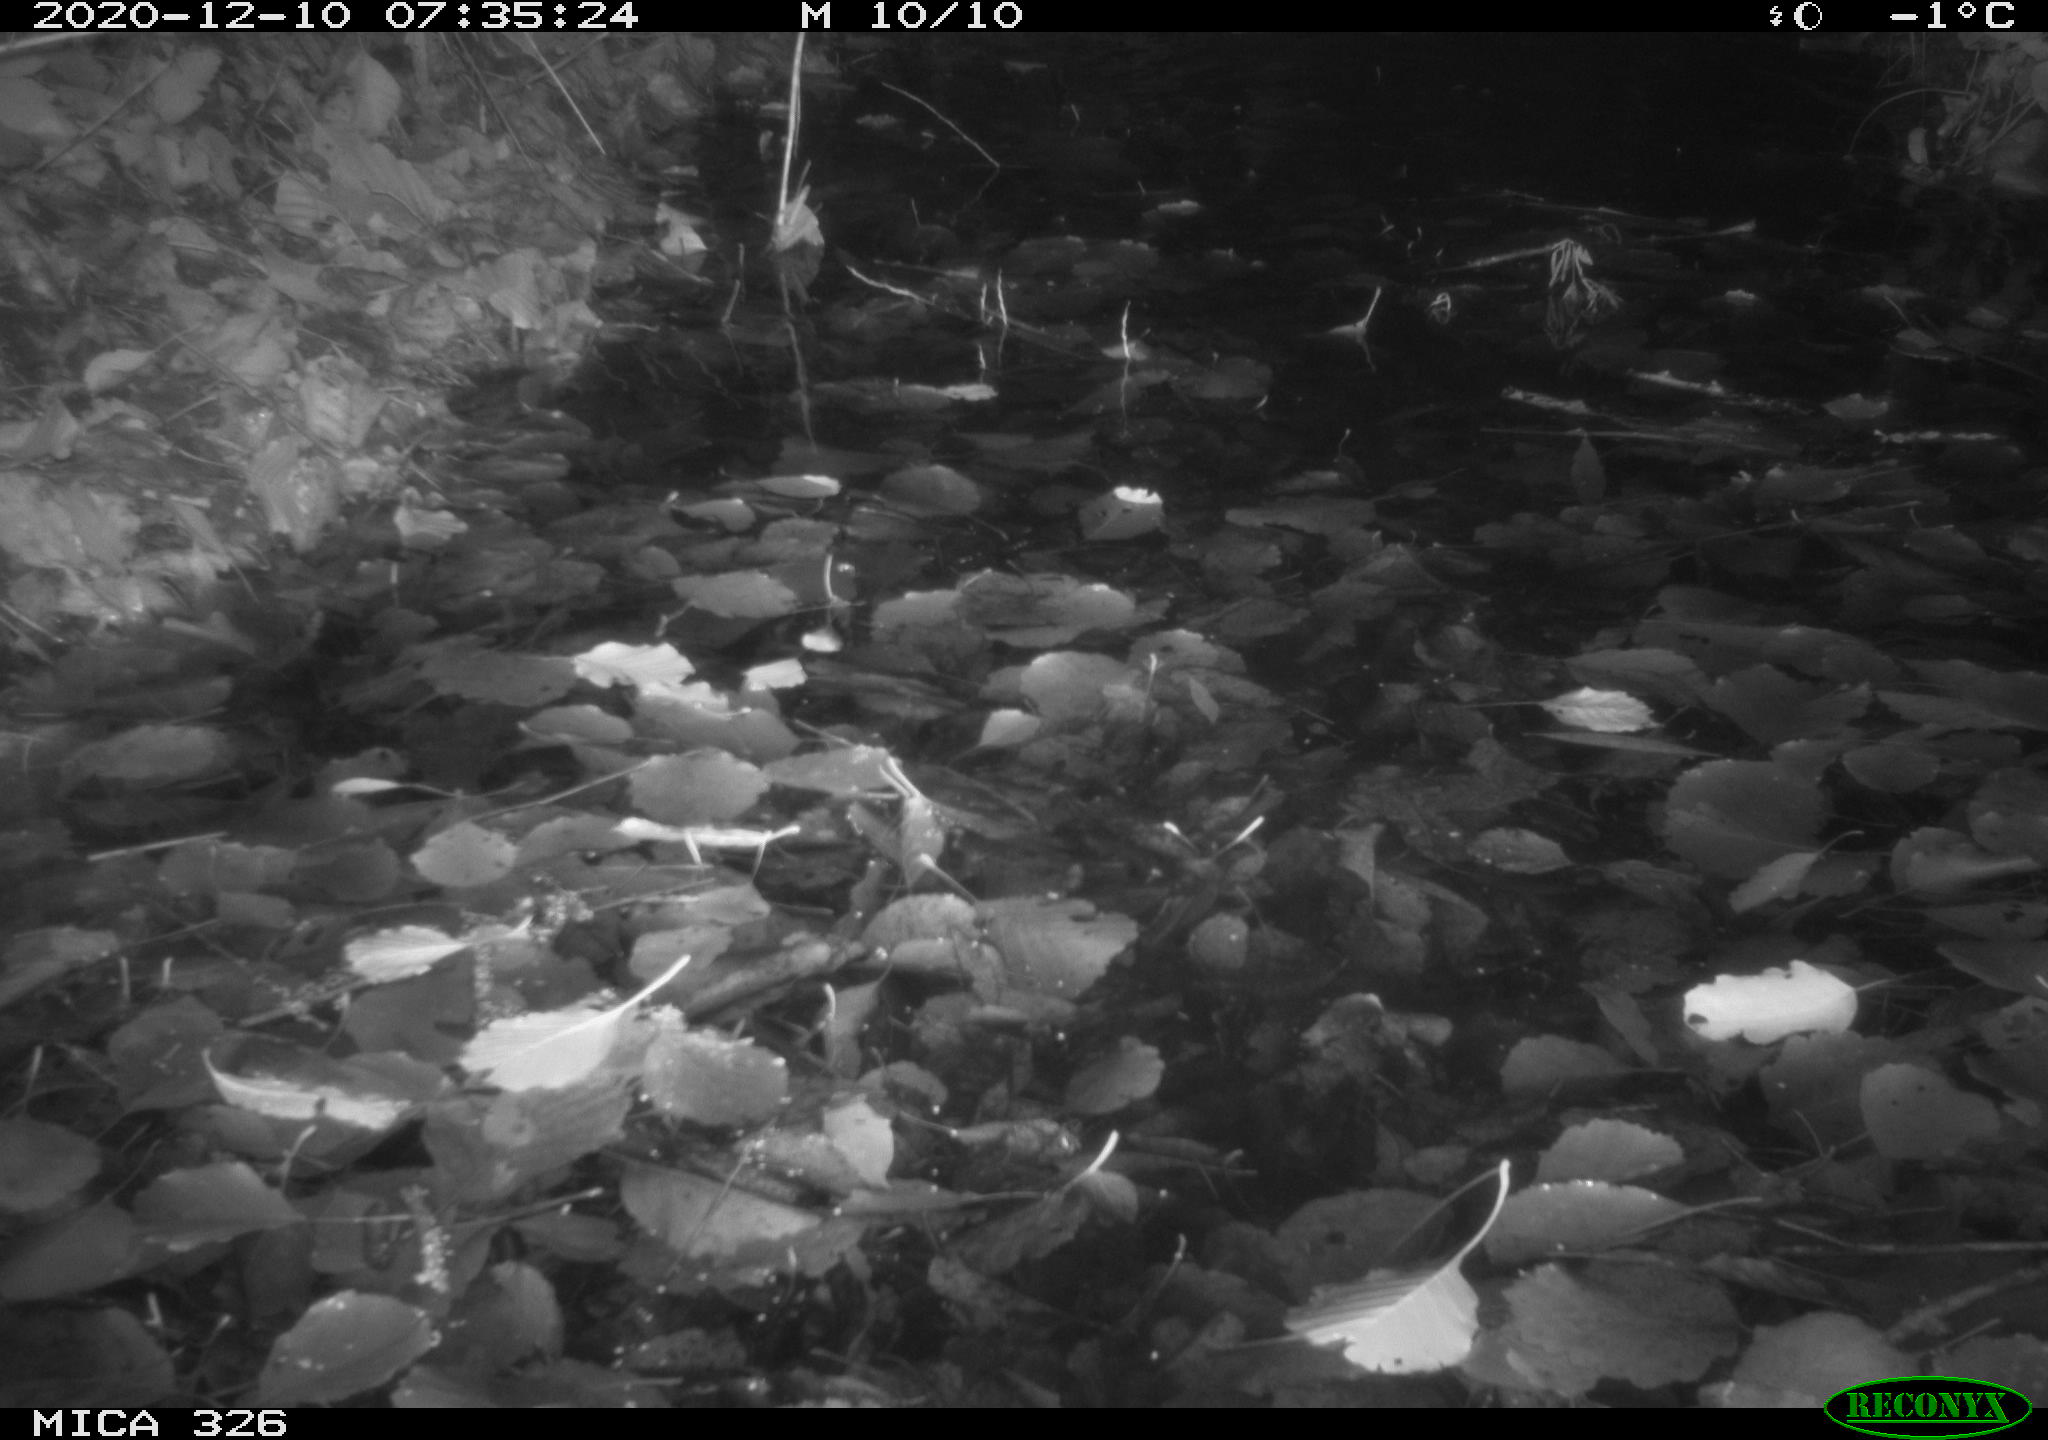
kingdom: Animalia
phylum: Chordata
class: Mammalia
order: Rodentia
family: Cricetidae
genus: Ondatra
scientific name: Ondatra zibethicus
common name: Muskrat
